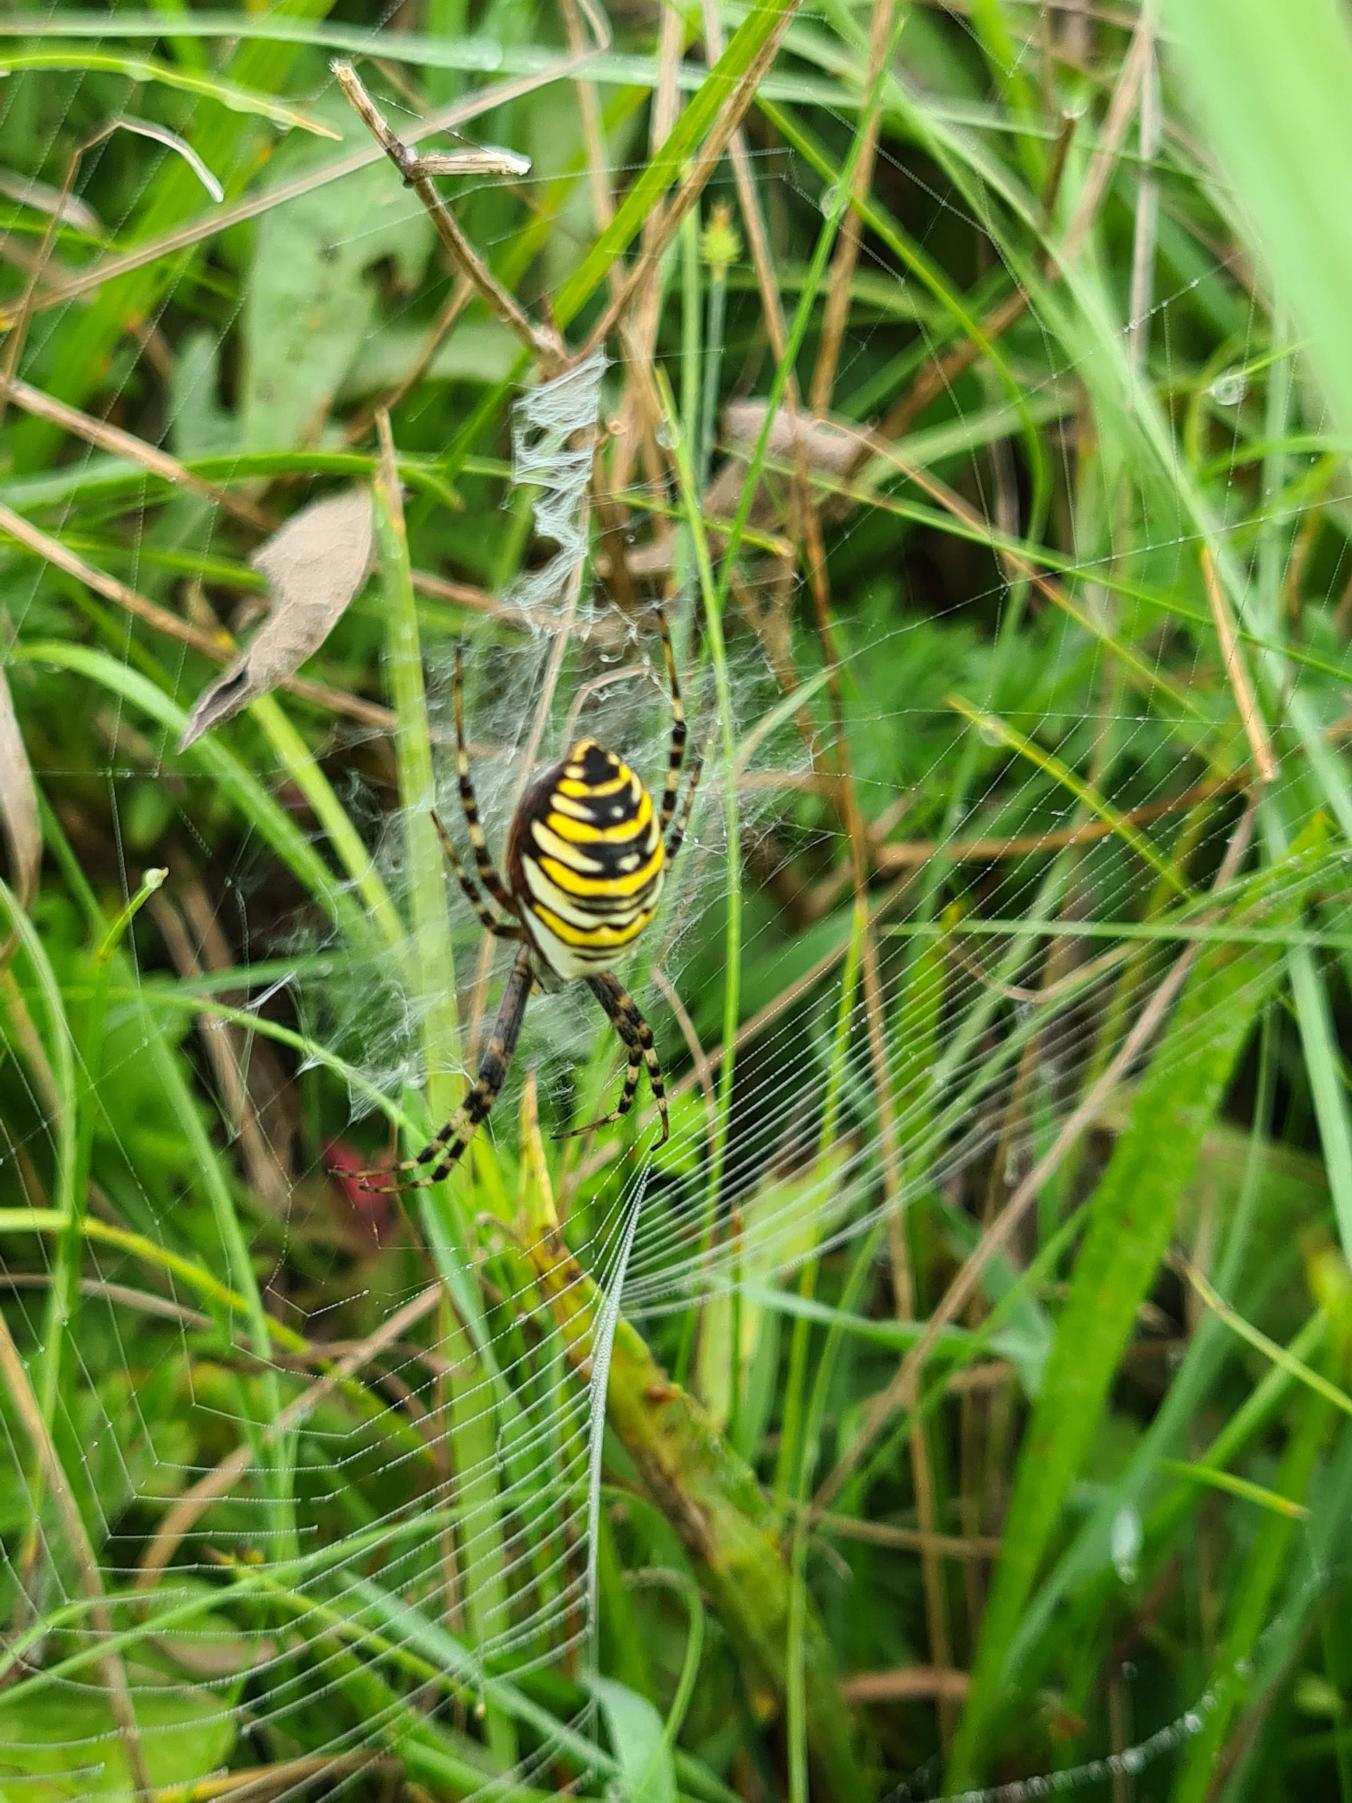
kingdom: Animalia
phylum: Arthropoda
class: Arachnida
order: Araneae
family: Araneidae
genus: Argiope
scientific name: Argiope bruennichi
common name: Hvepseedderkop
